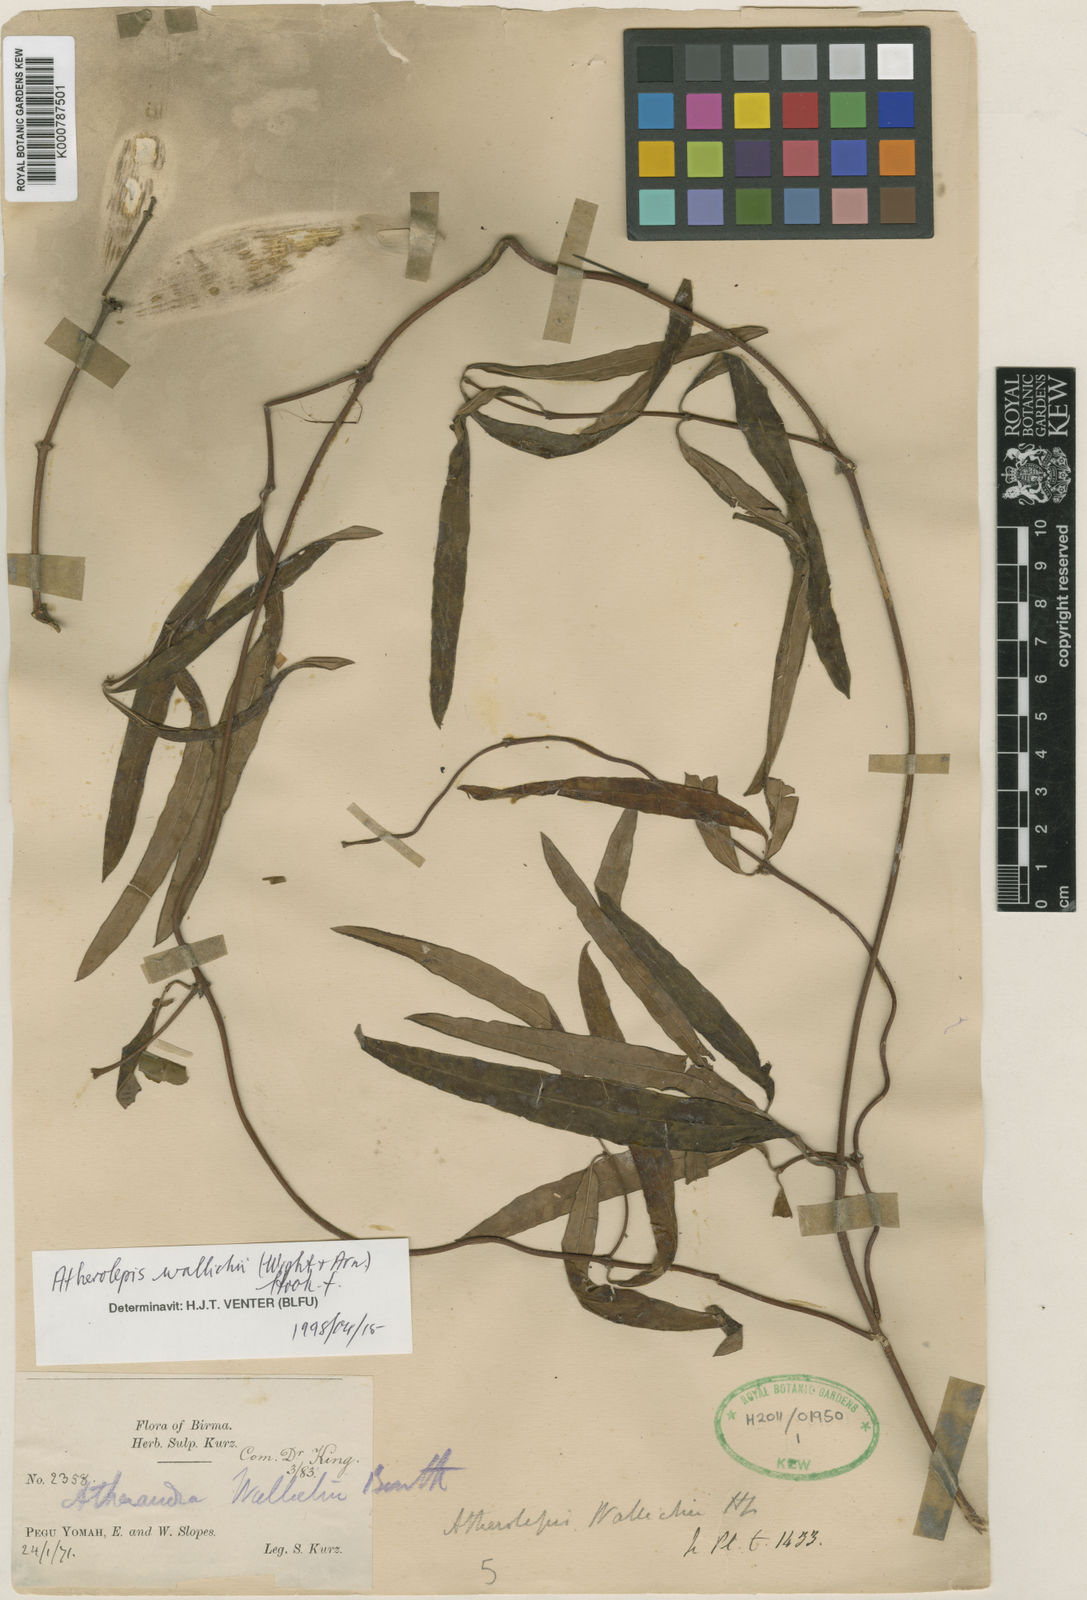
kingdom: Plantae
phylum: Tracheophyta
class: Magnoliopsida
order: Gentianales
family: Apocynaceae
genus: Finlaysonia
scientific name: Finlaysonia wallichii
